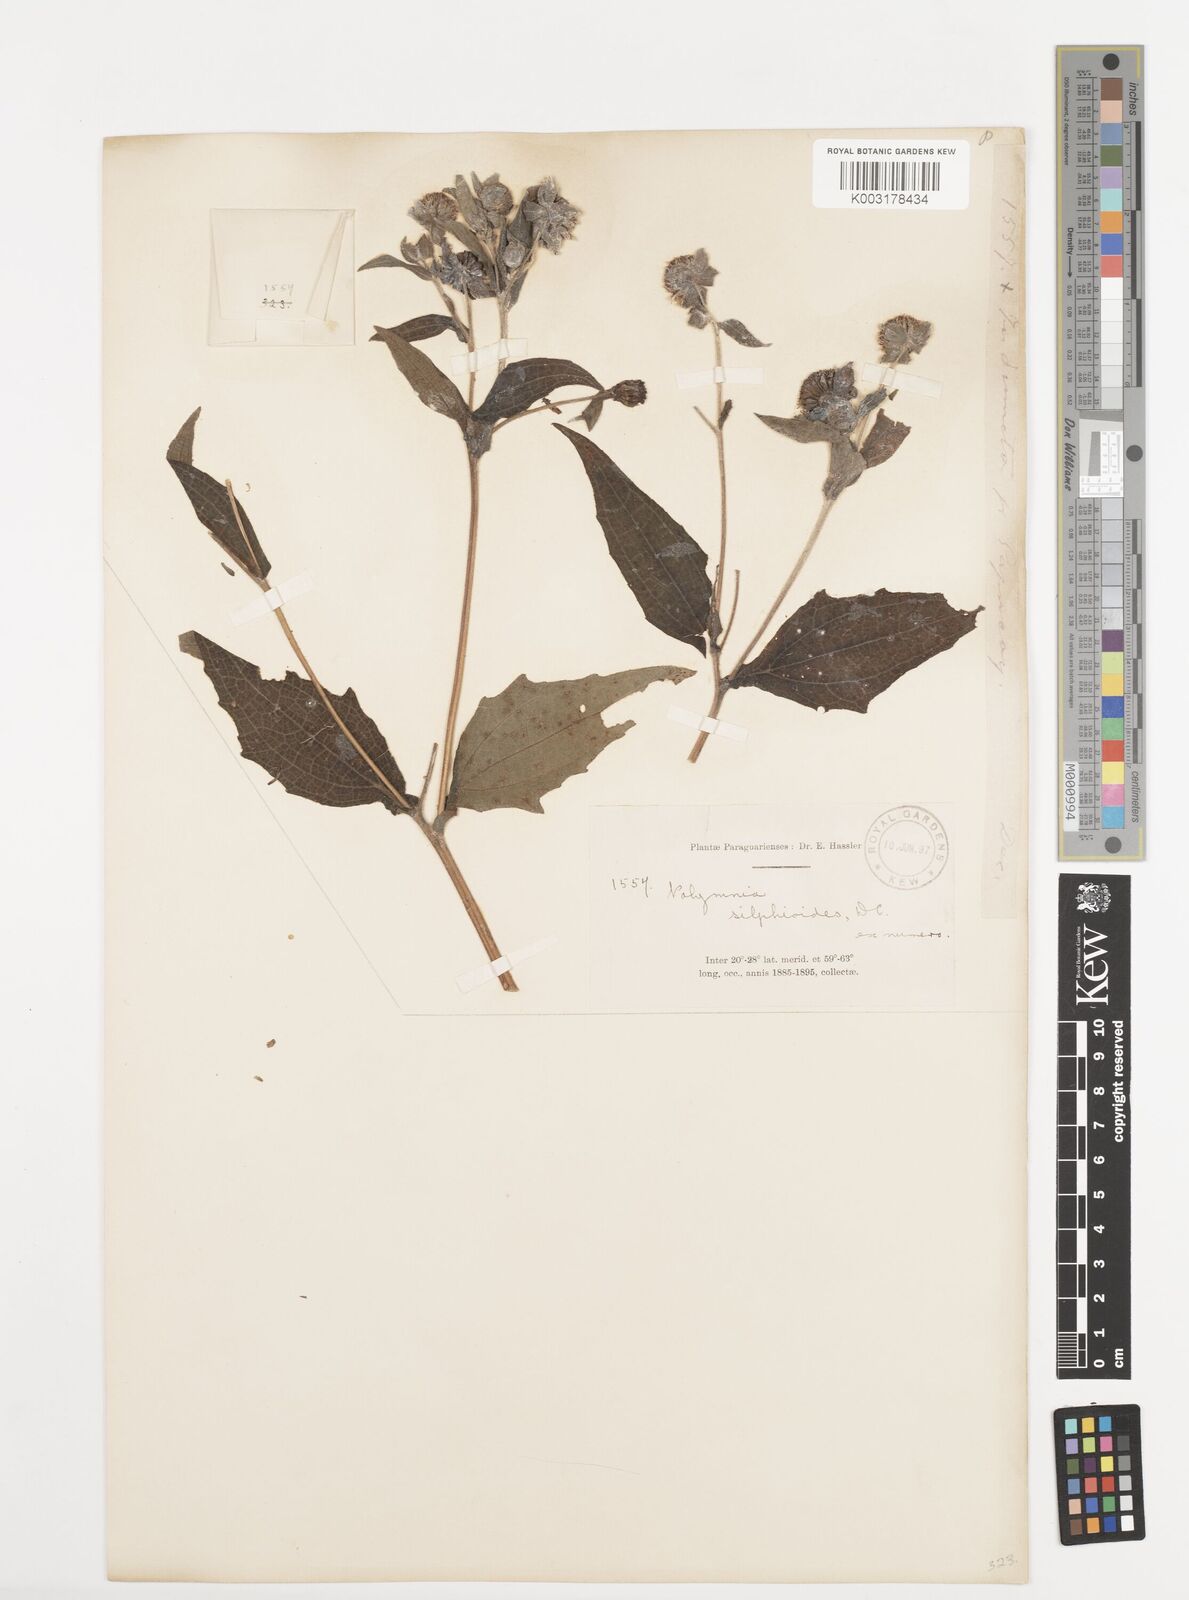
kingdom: Plantae
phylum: Tracheophyta
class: Magnoliopsida
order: Asterales
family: Asteraceae
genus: Smallanthus
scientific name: Smallanthus connatus
